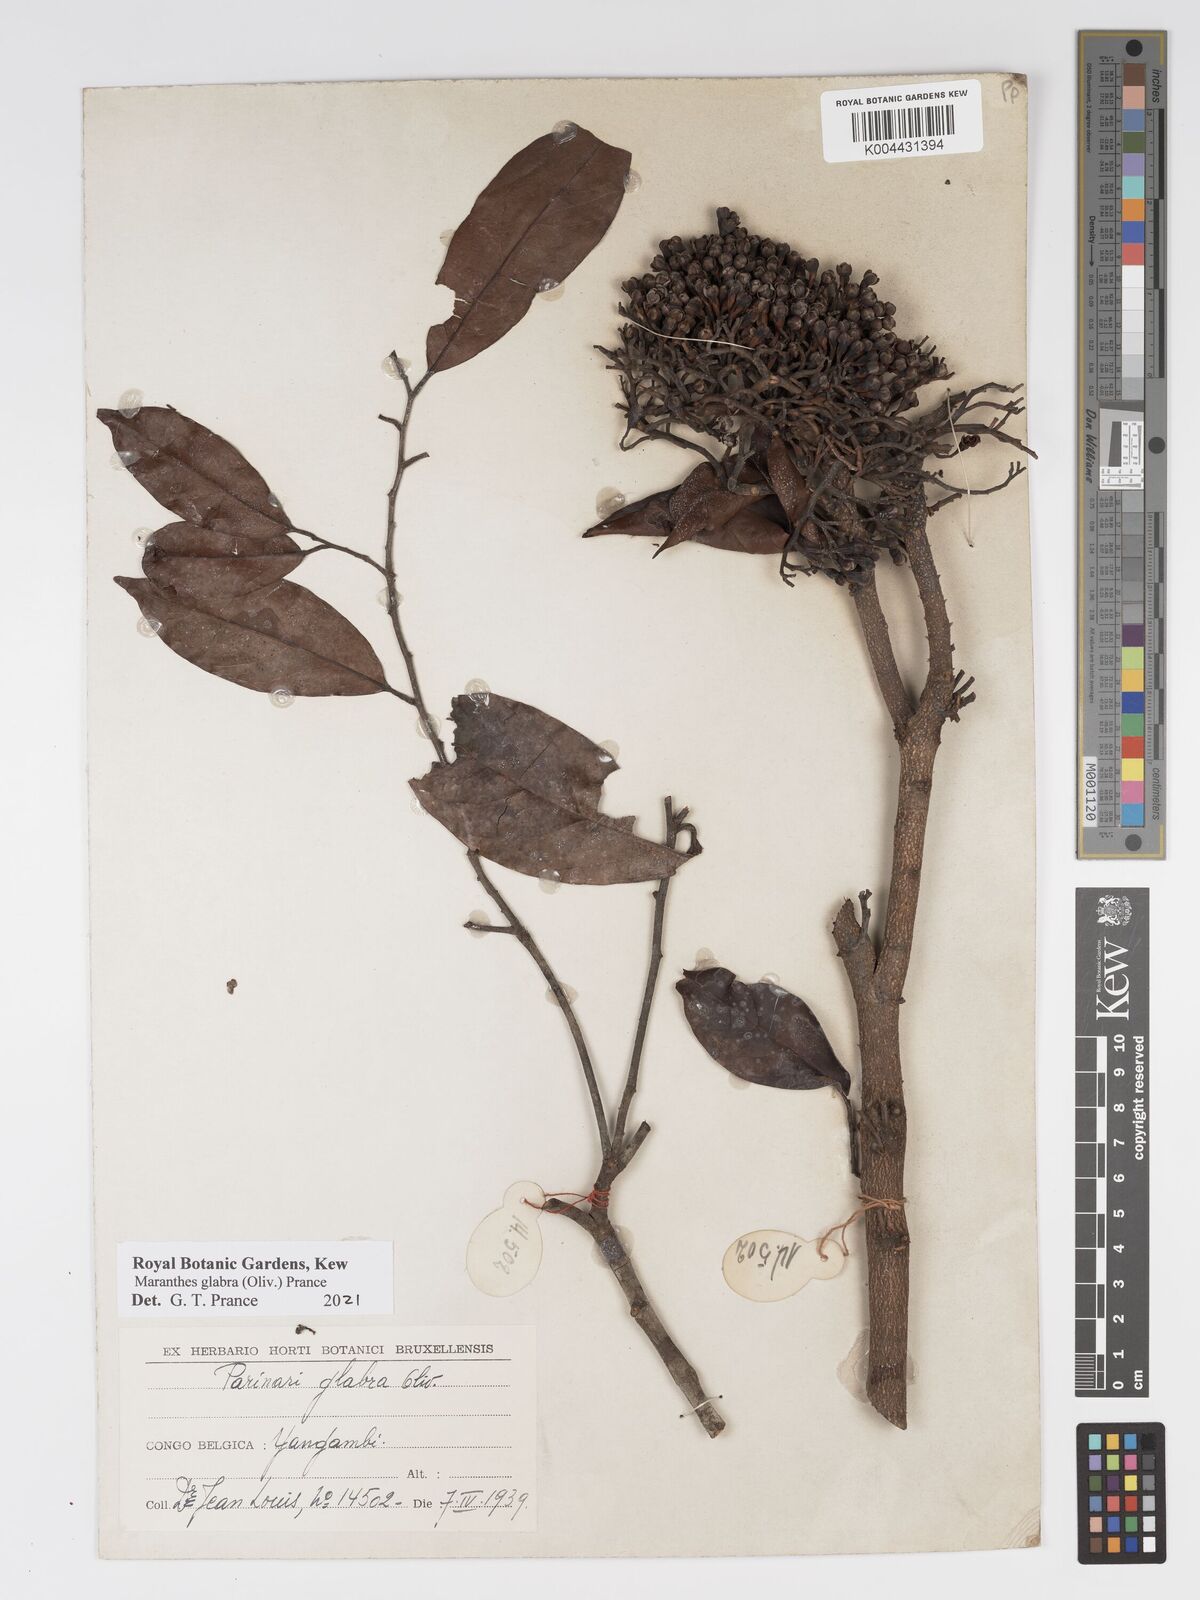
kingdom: Plantae
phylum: Tracheophyta
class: Magnoliopsida
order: Malpighiales
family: Chrysobalanaceae
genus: Maranthes
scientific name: Maranthes glabra
